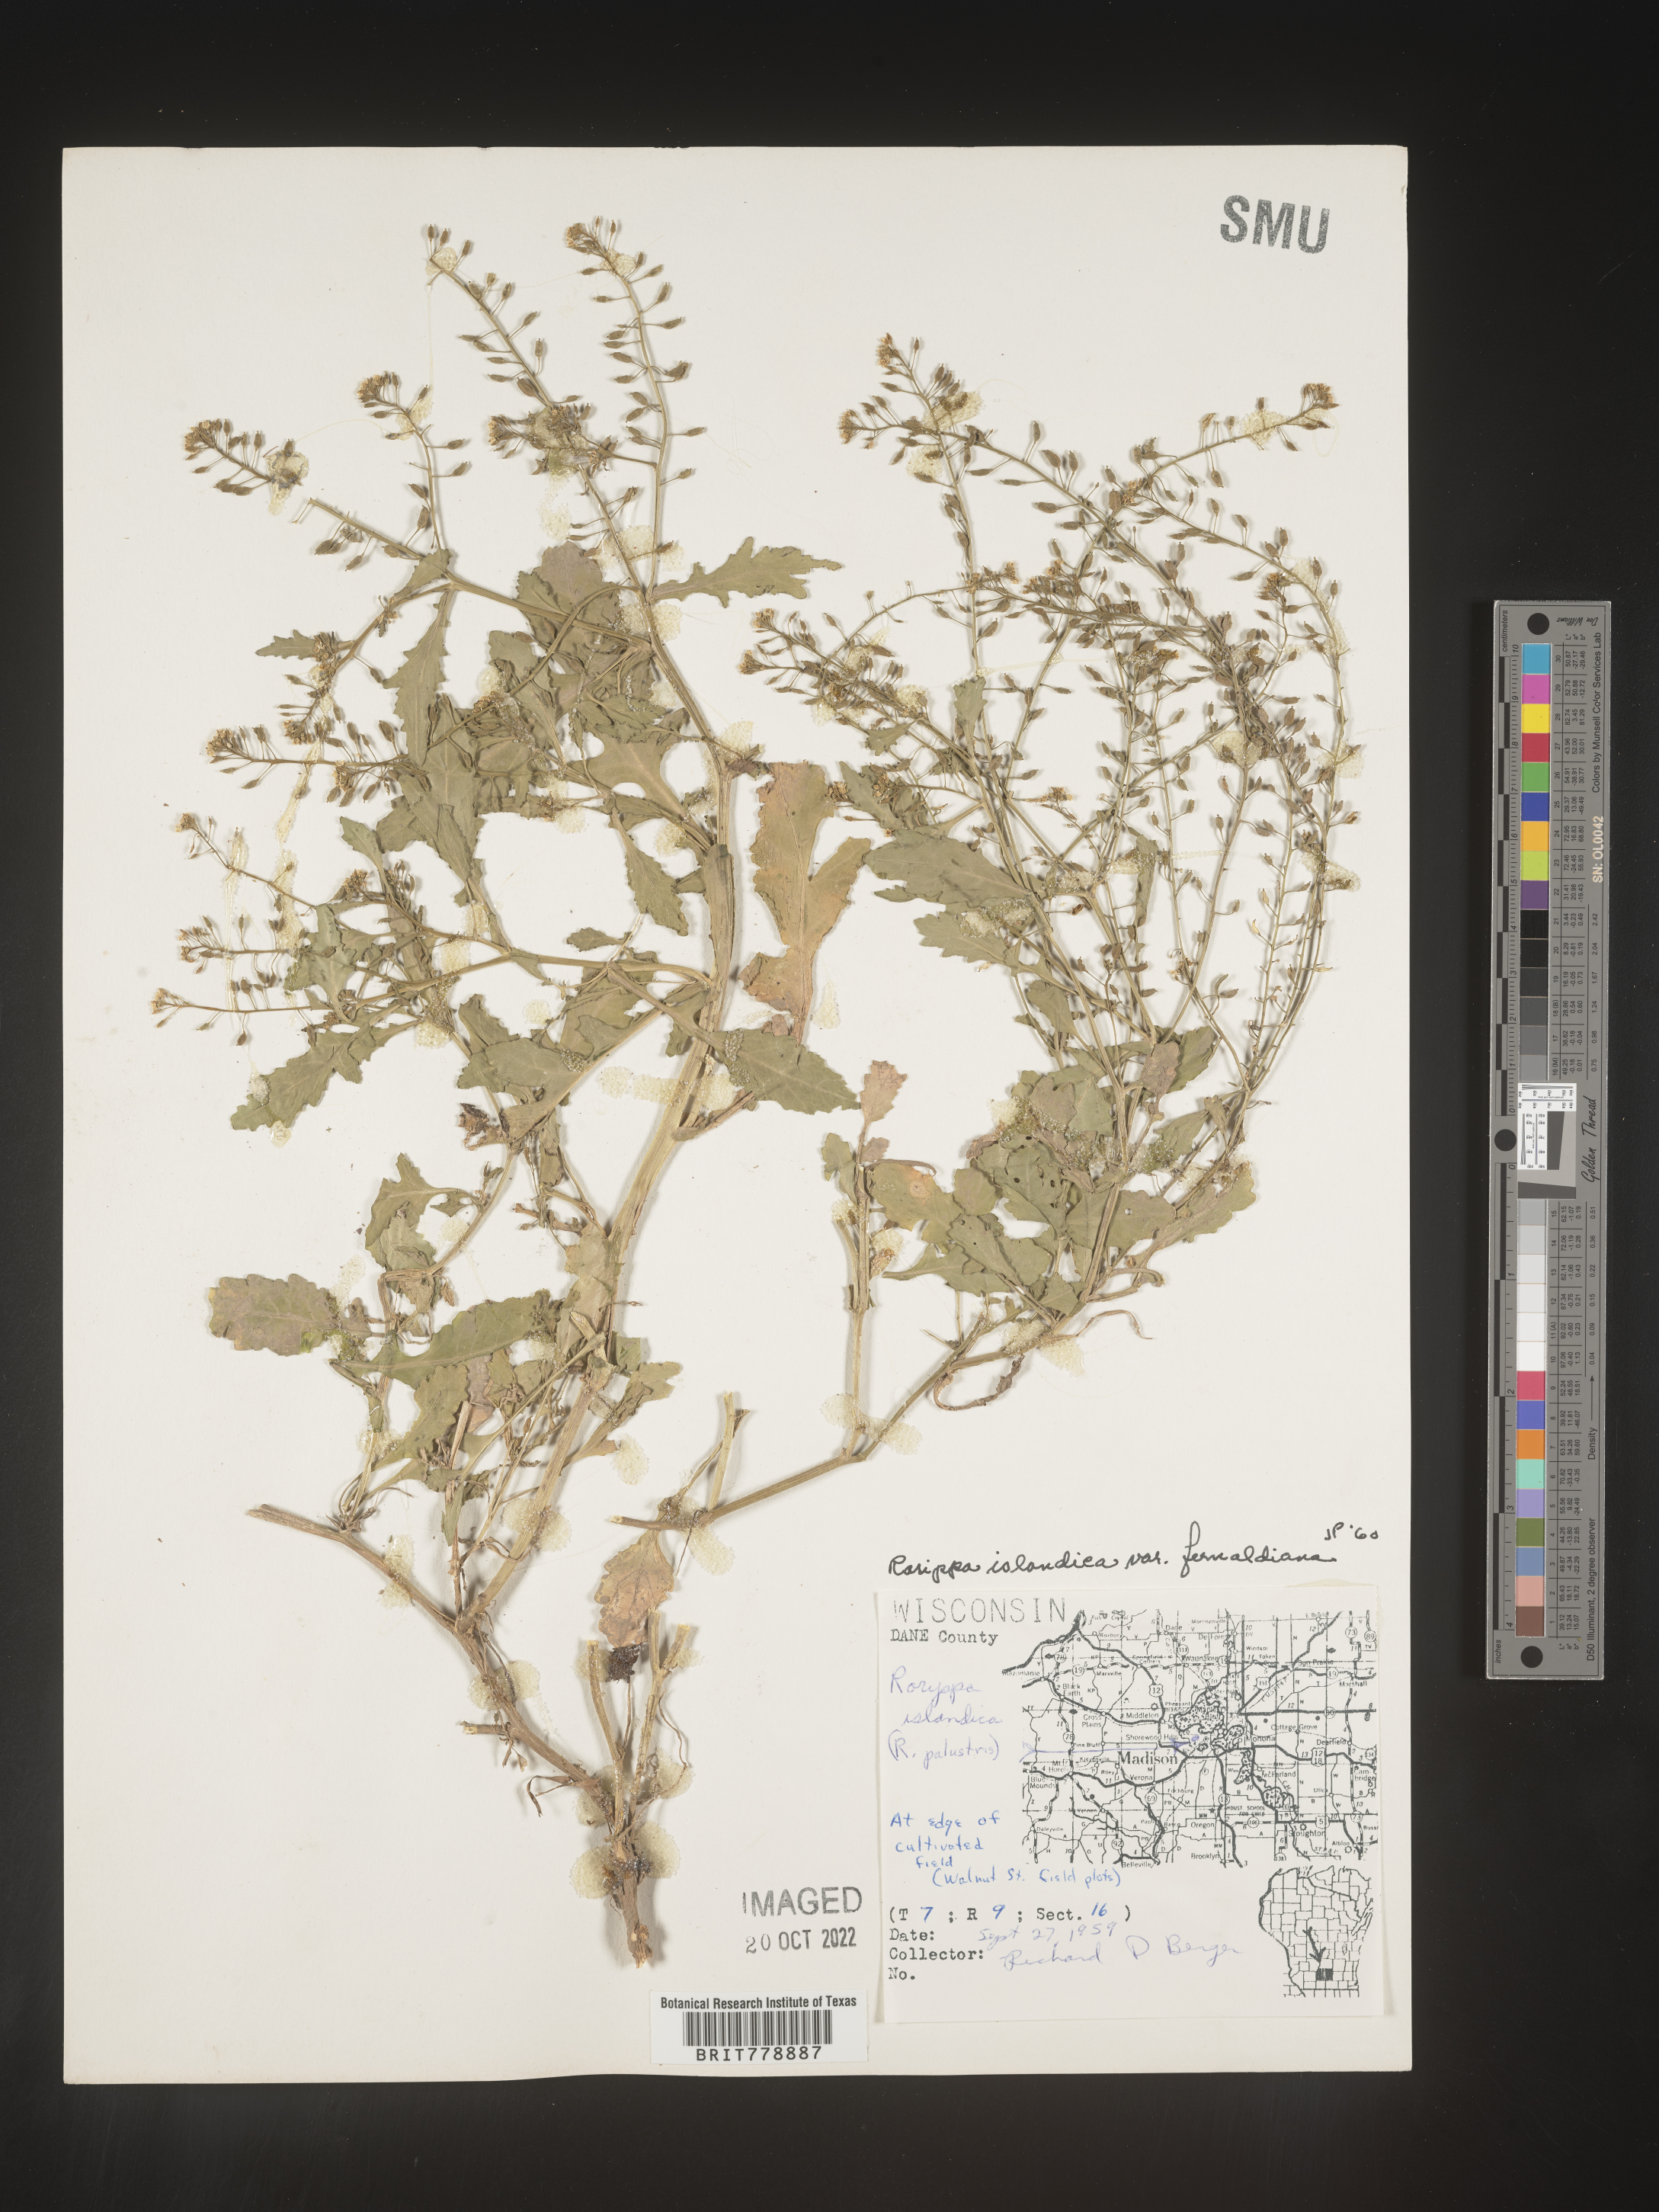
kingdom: Plantae
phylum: Tracheophyta
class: Magnoliopsida
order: Brassicales
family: Brassicaceae
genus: Rorippa
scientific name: Rorippa palustris
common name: Marsh yellow-cress
